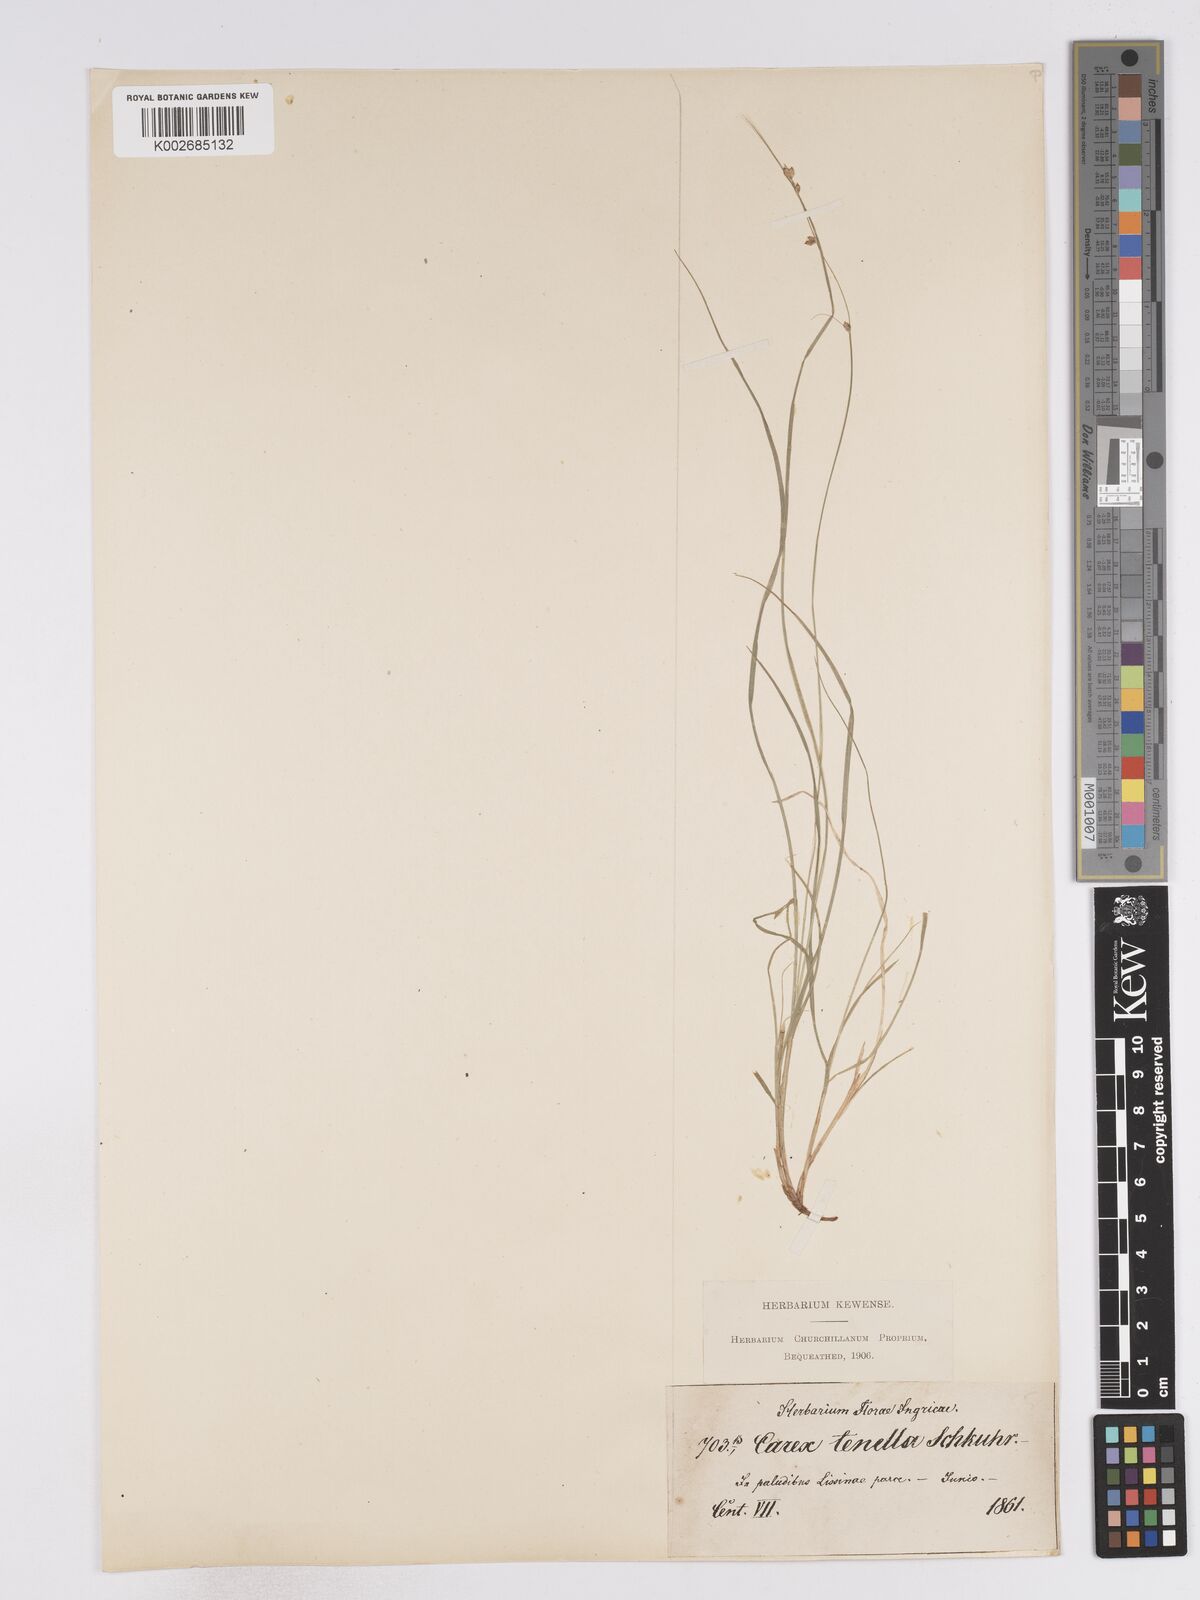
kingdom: Plantae
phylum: Tracheophyta
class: Liliopsida
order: Poales
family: Cyperaceae
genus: Carex
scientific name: Carex disperma
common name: Short-leaved sedge
